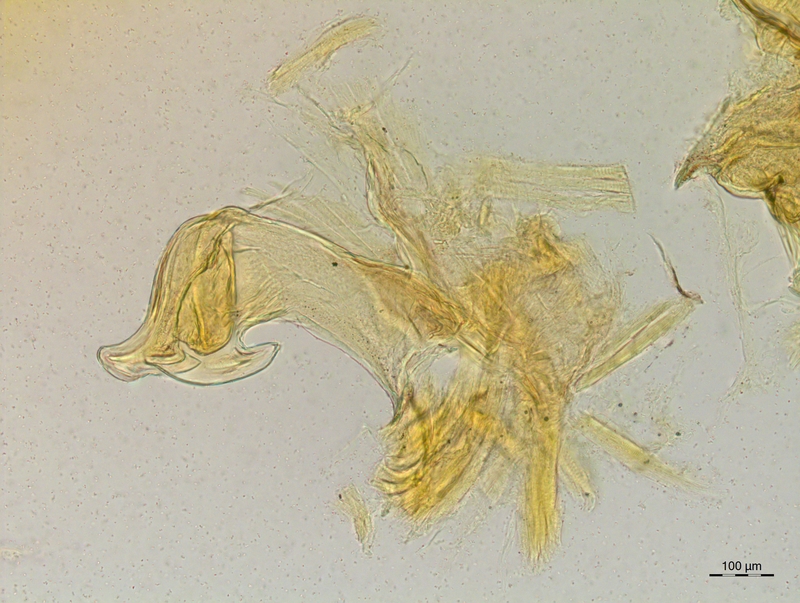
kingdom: Animalia
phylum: Arthropoda
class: Diplopoda
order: Chordeumatida
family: Craspedosomatidae
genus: Craspedosoma
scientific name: Craspedosoma rawlinsii
